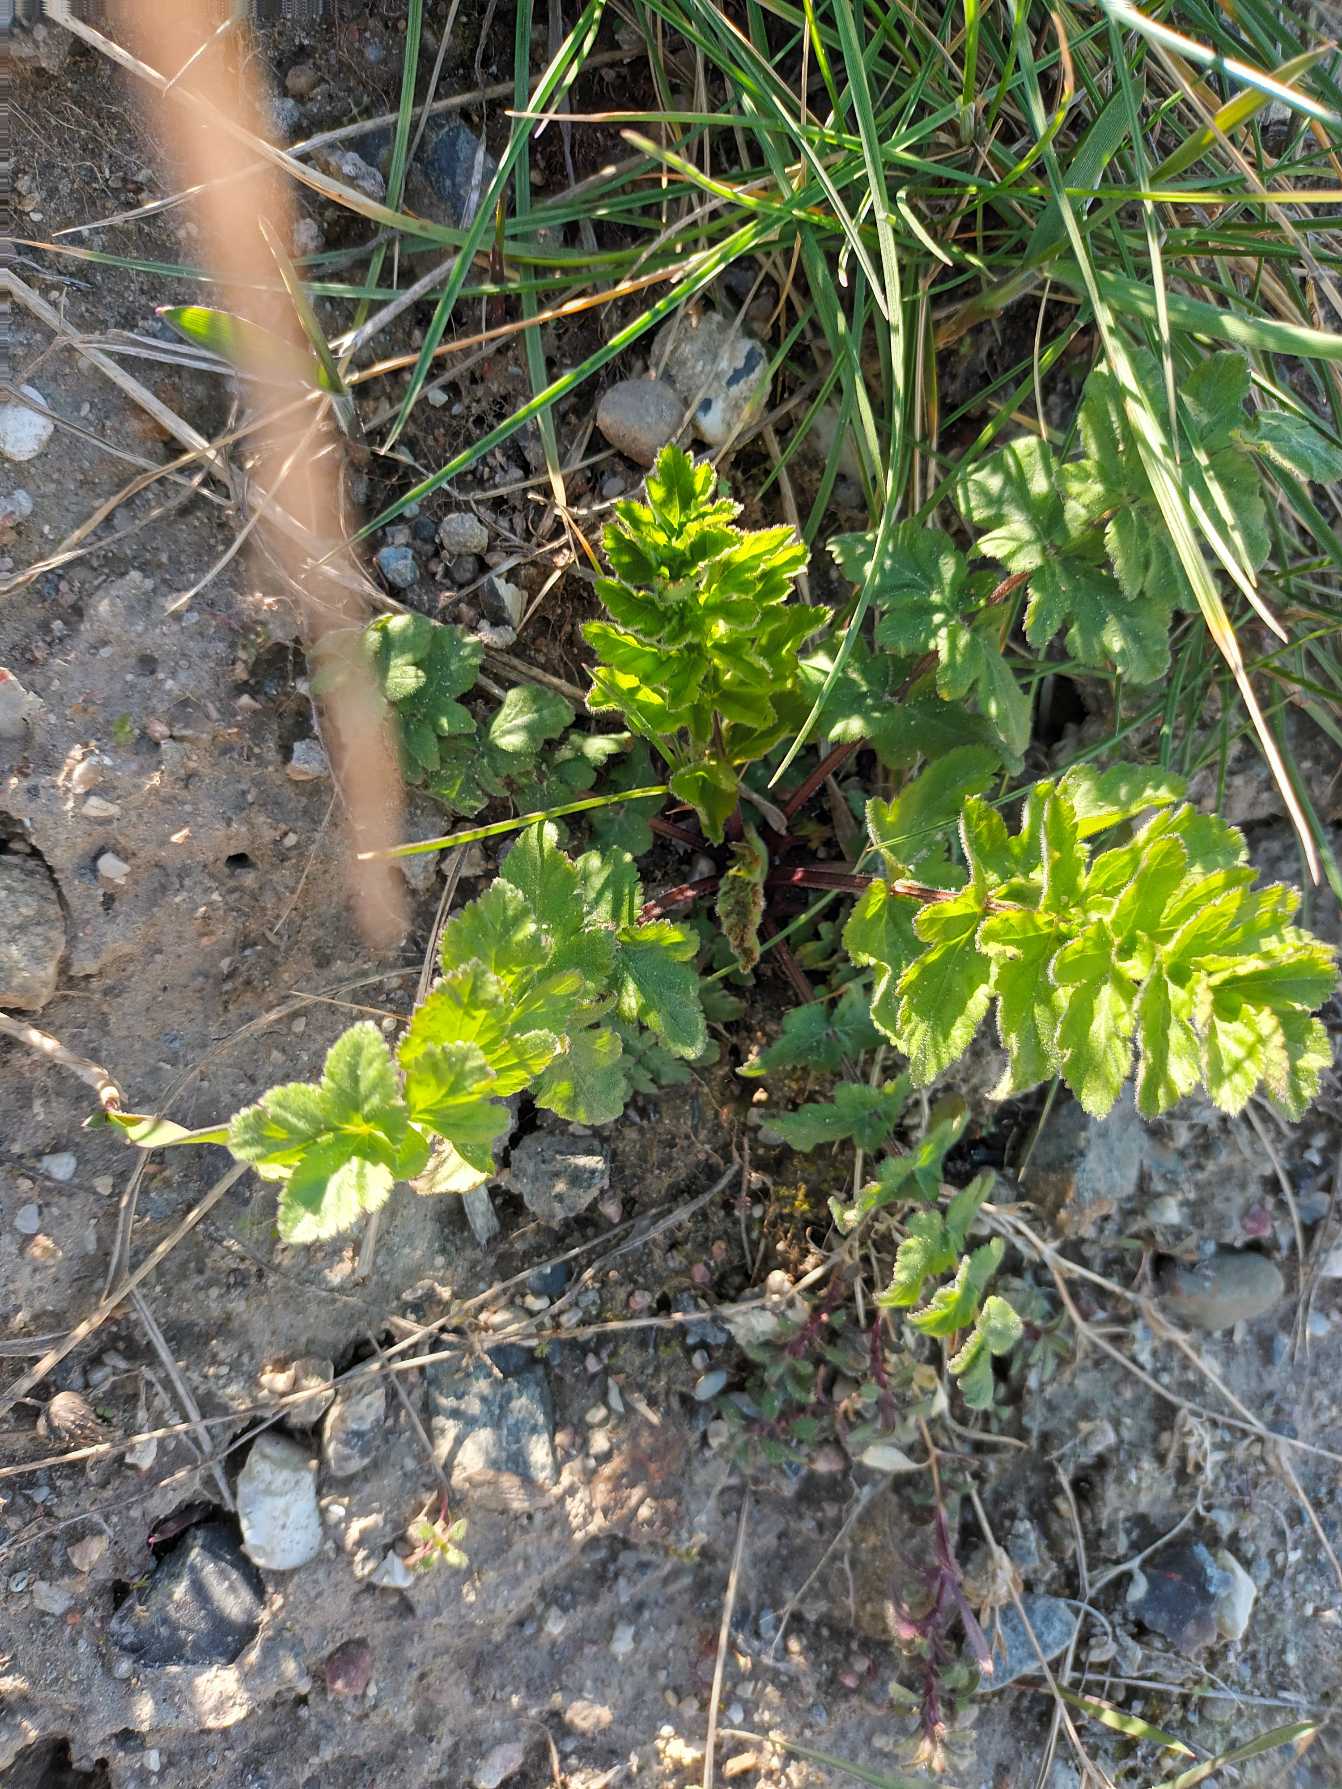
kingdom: Plantae
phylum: Tracheophyta
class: Magnoliopsida
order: Apiales
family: Apiaceae
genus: Pastinaca
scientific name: Pastinaca sativa
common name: Pastinak
